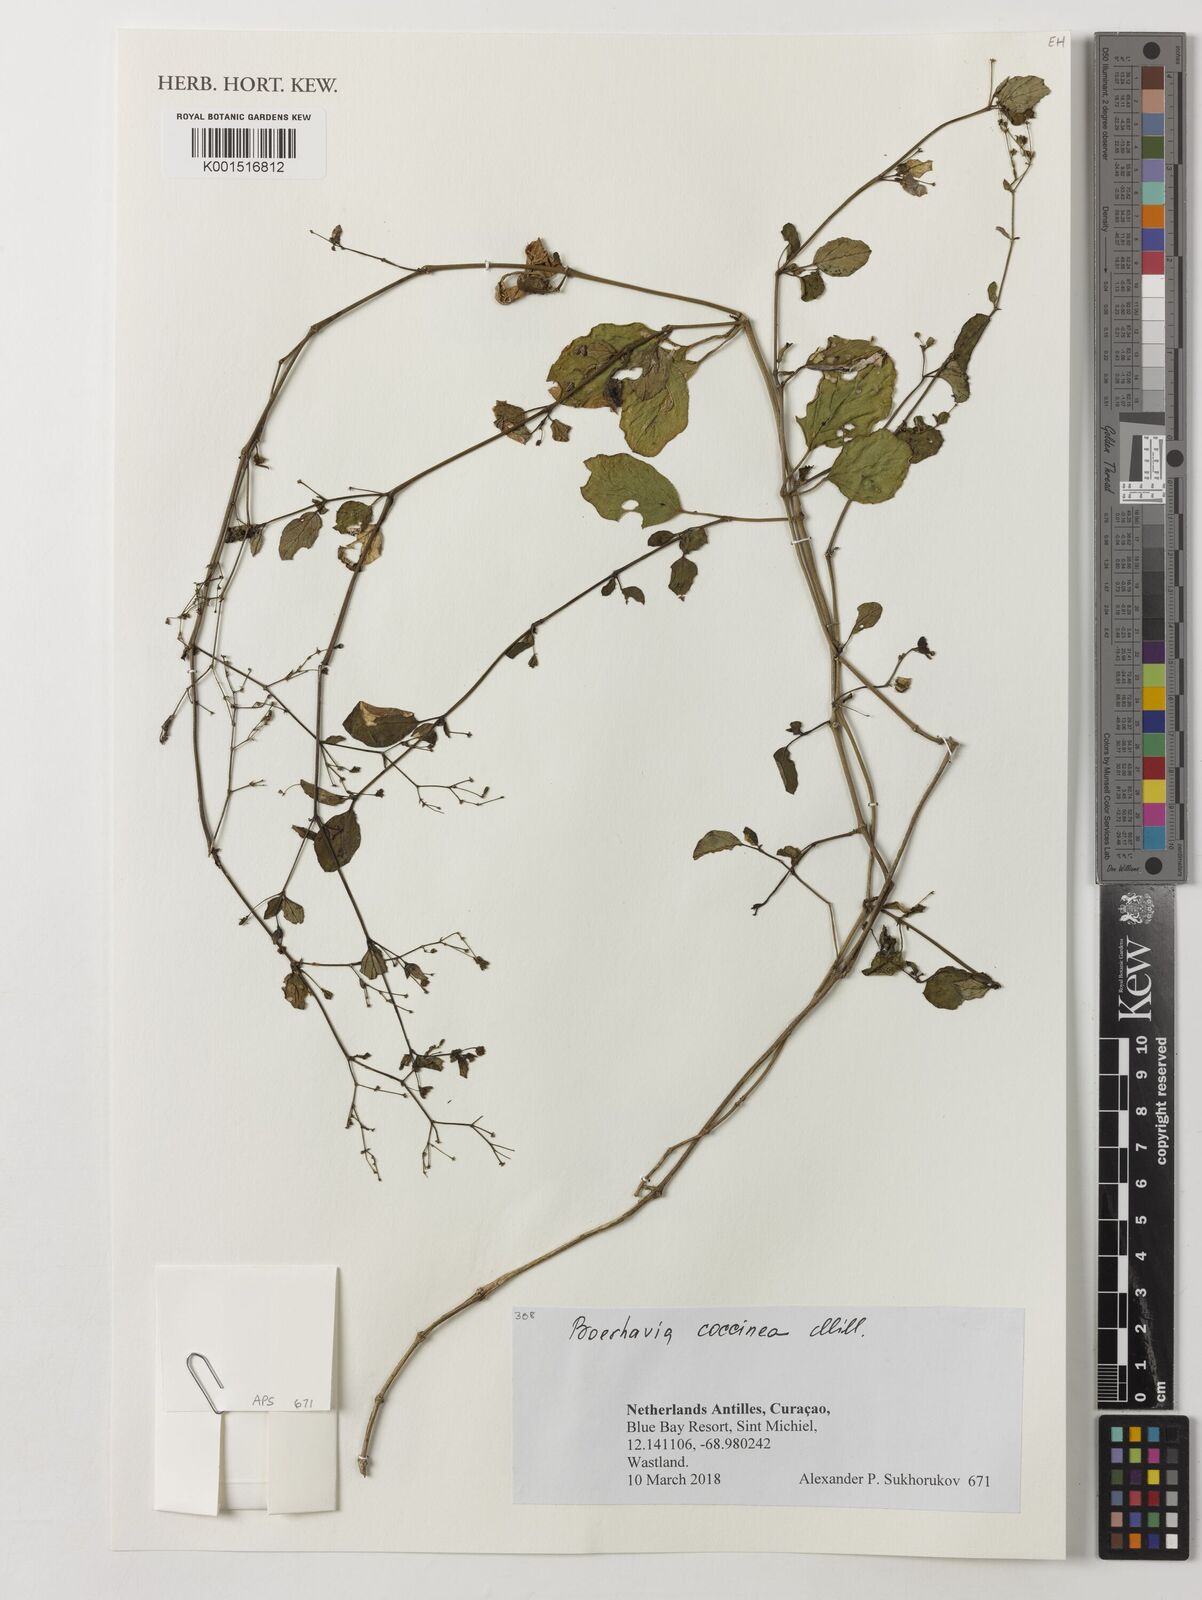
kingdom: Plantae
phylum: Tracheophyta
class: Magnoliopsida
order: Caryophyllales
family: Nyctaginaceae
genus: Boerhavia
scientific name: Boerhavia coccinea
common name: Scarlet spiderling
